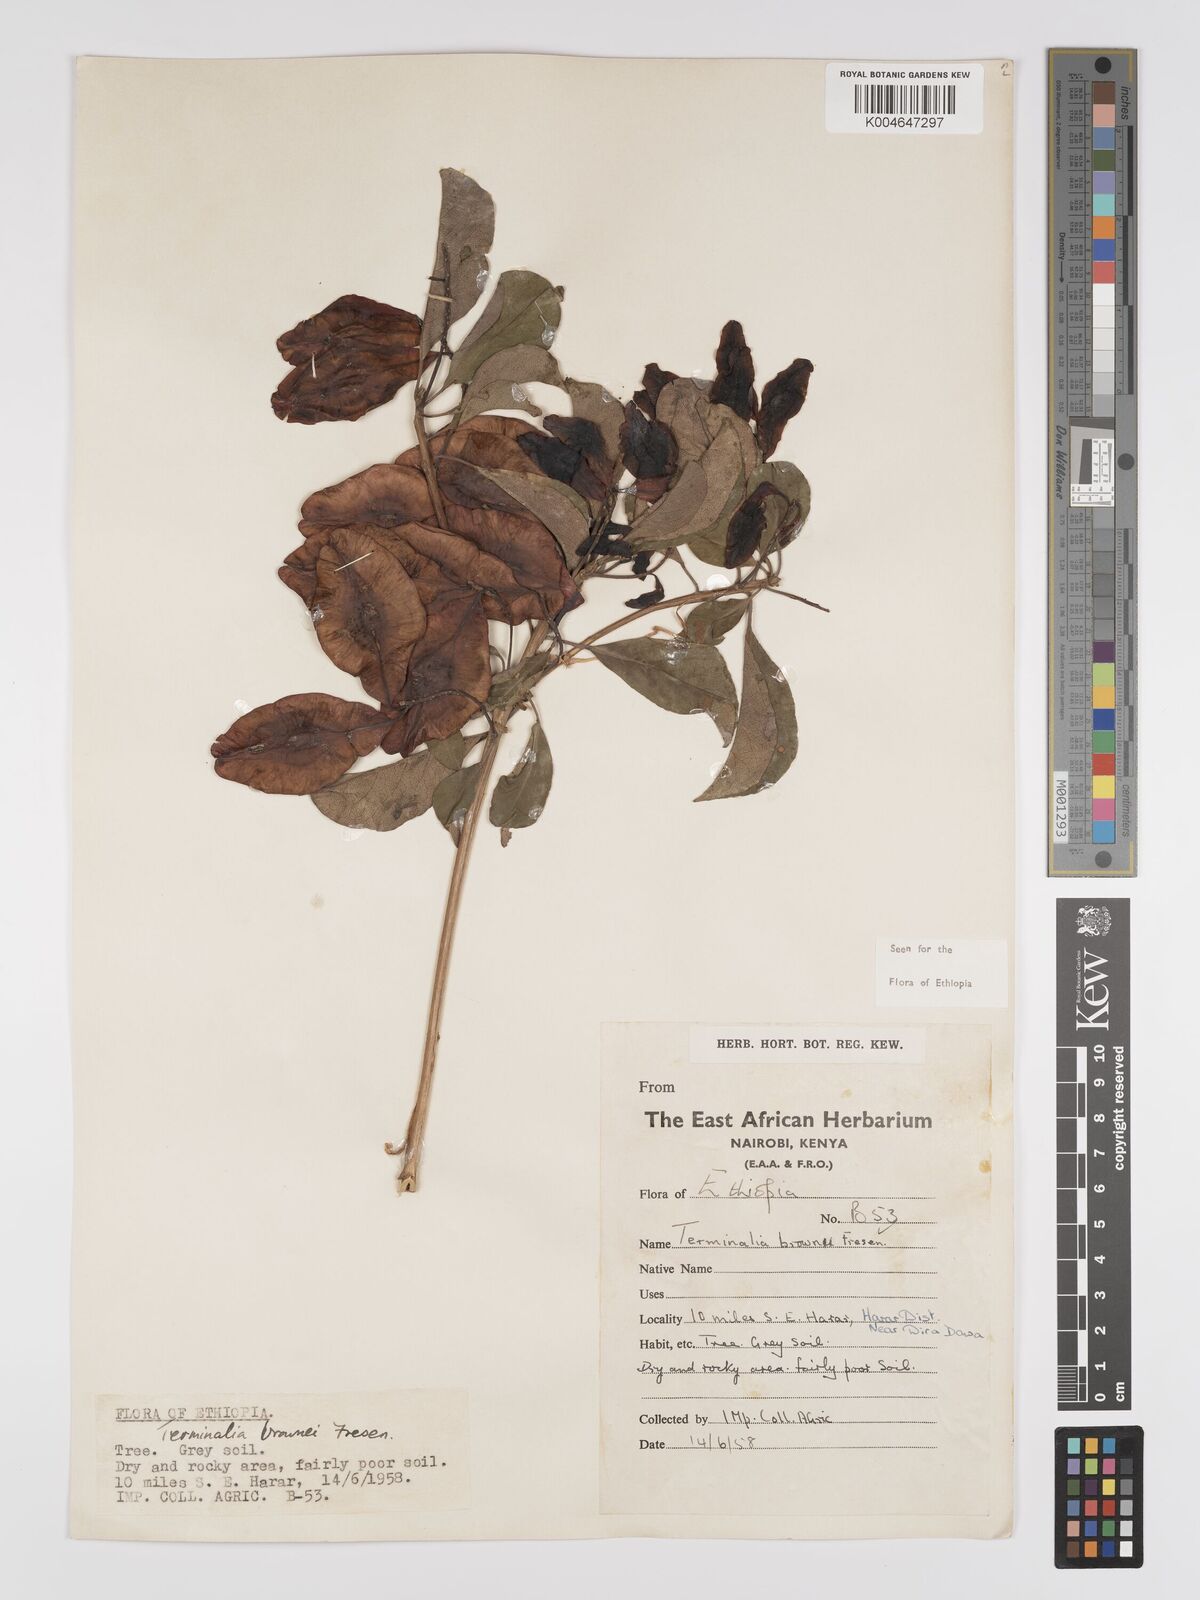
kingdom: Plantae
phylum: Tracheophyta
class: Magnoliopsida
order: Myrtales
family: Combretaceae
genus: Terminalia
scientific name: Terminalia brownii
